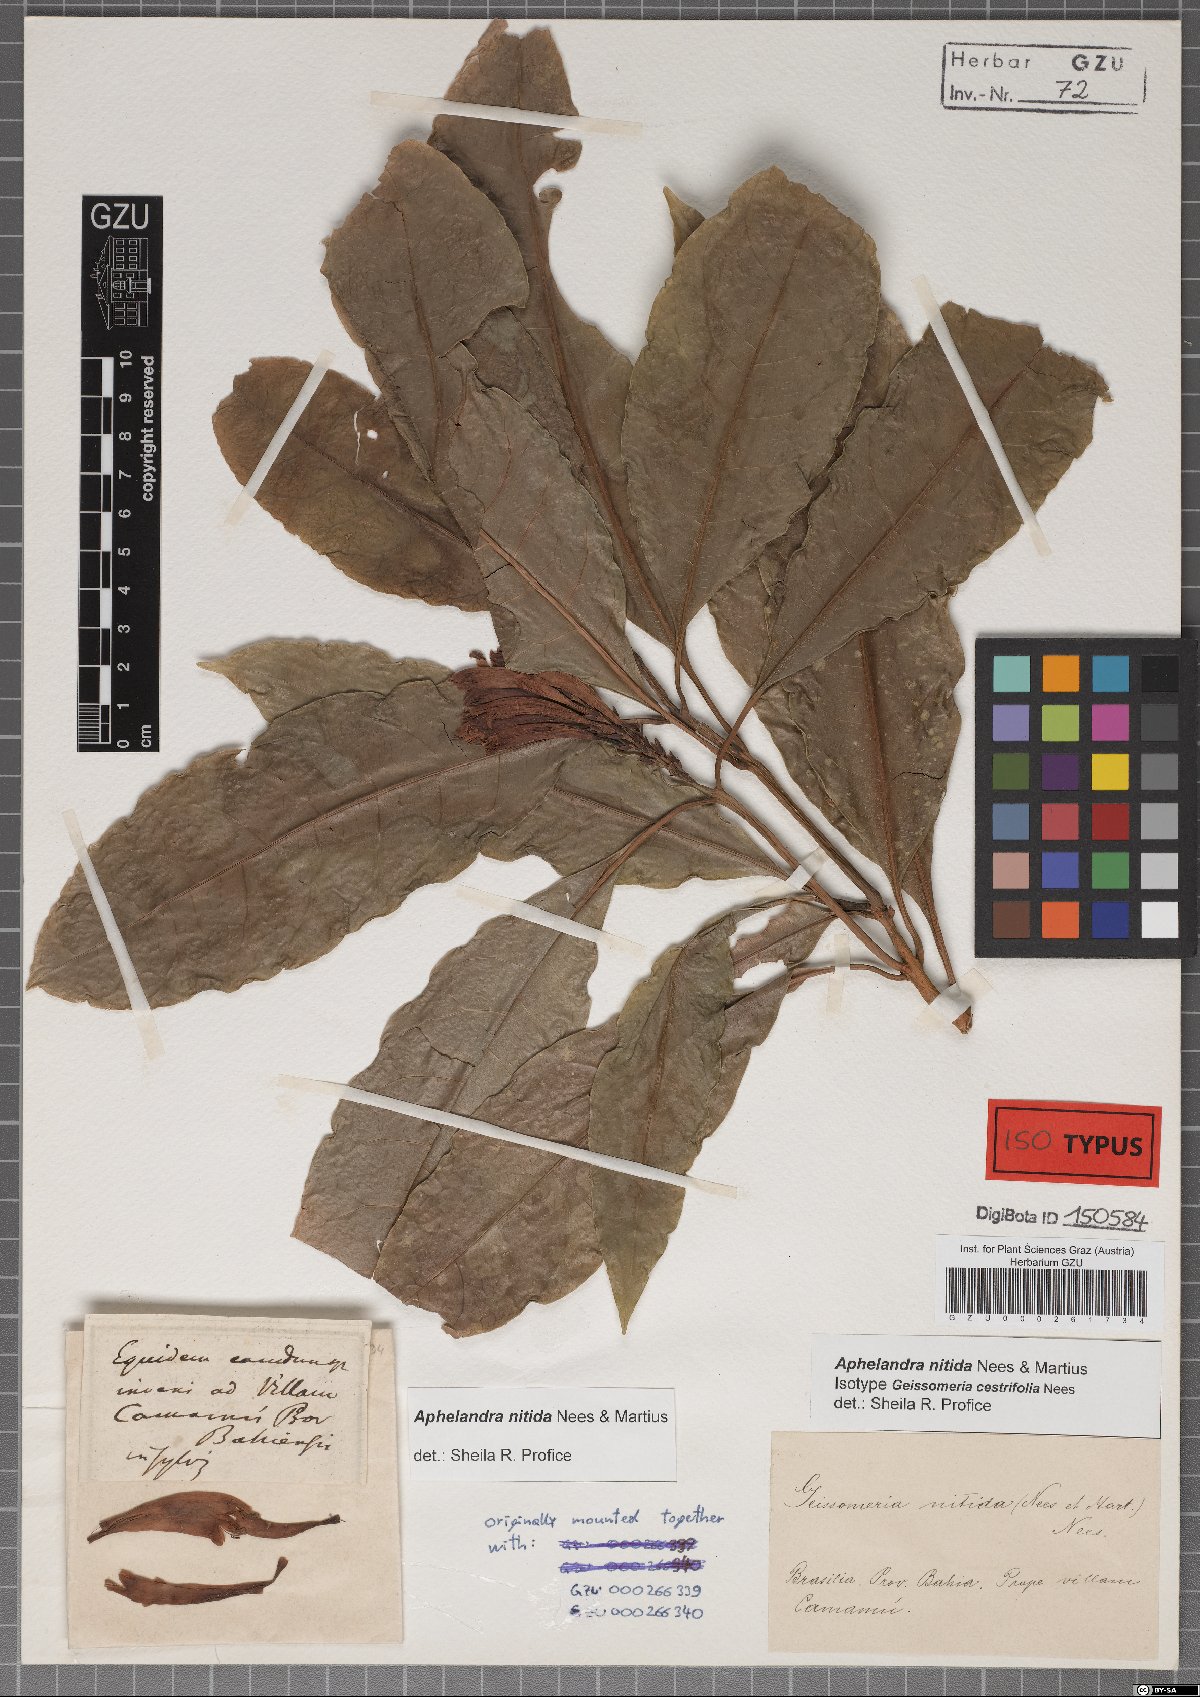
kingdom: Plantae
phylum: Tracheophyta
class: Magnoliopsida
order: Lamiales
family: Acanthaceae
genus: Aphelandra
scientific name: Aphelandra nitida
